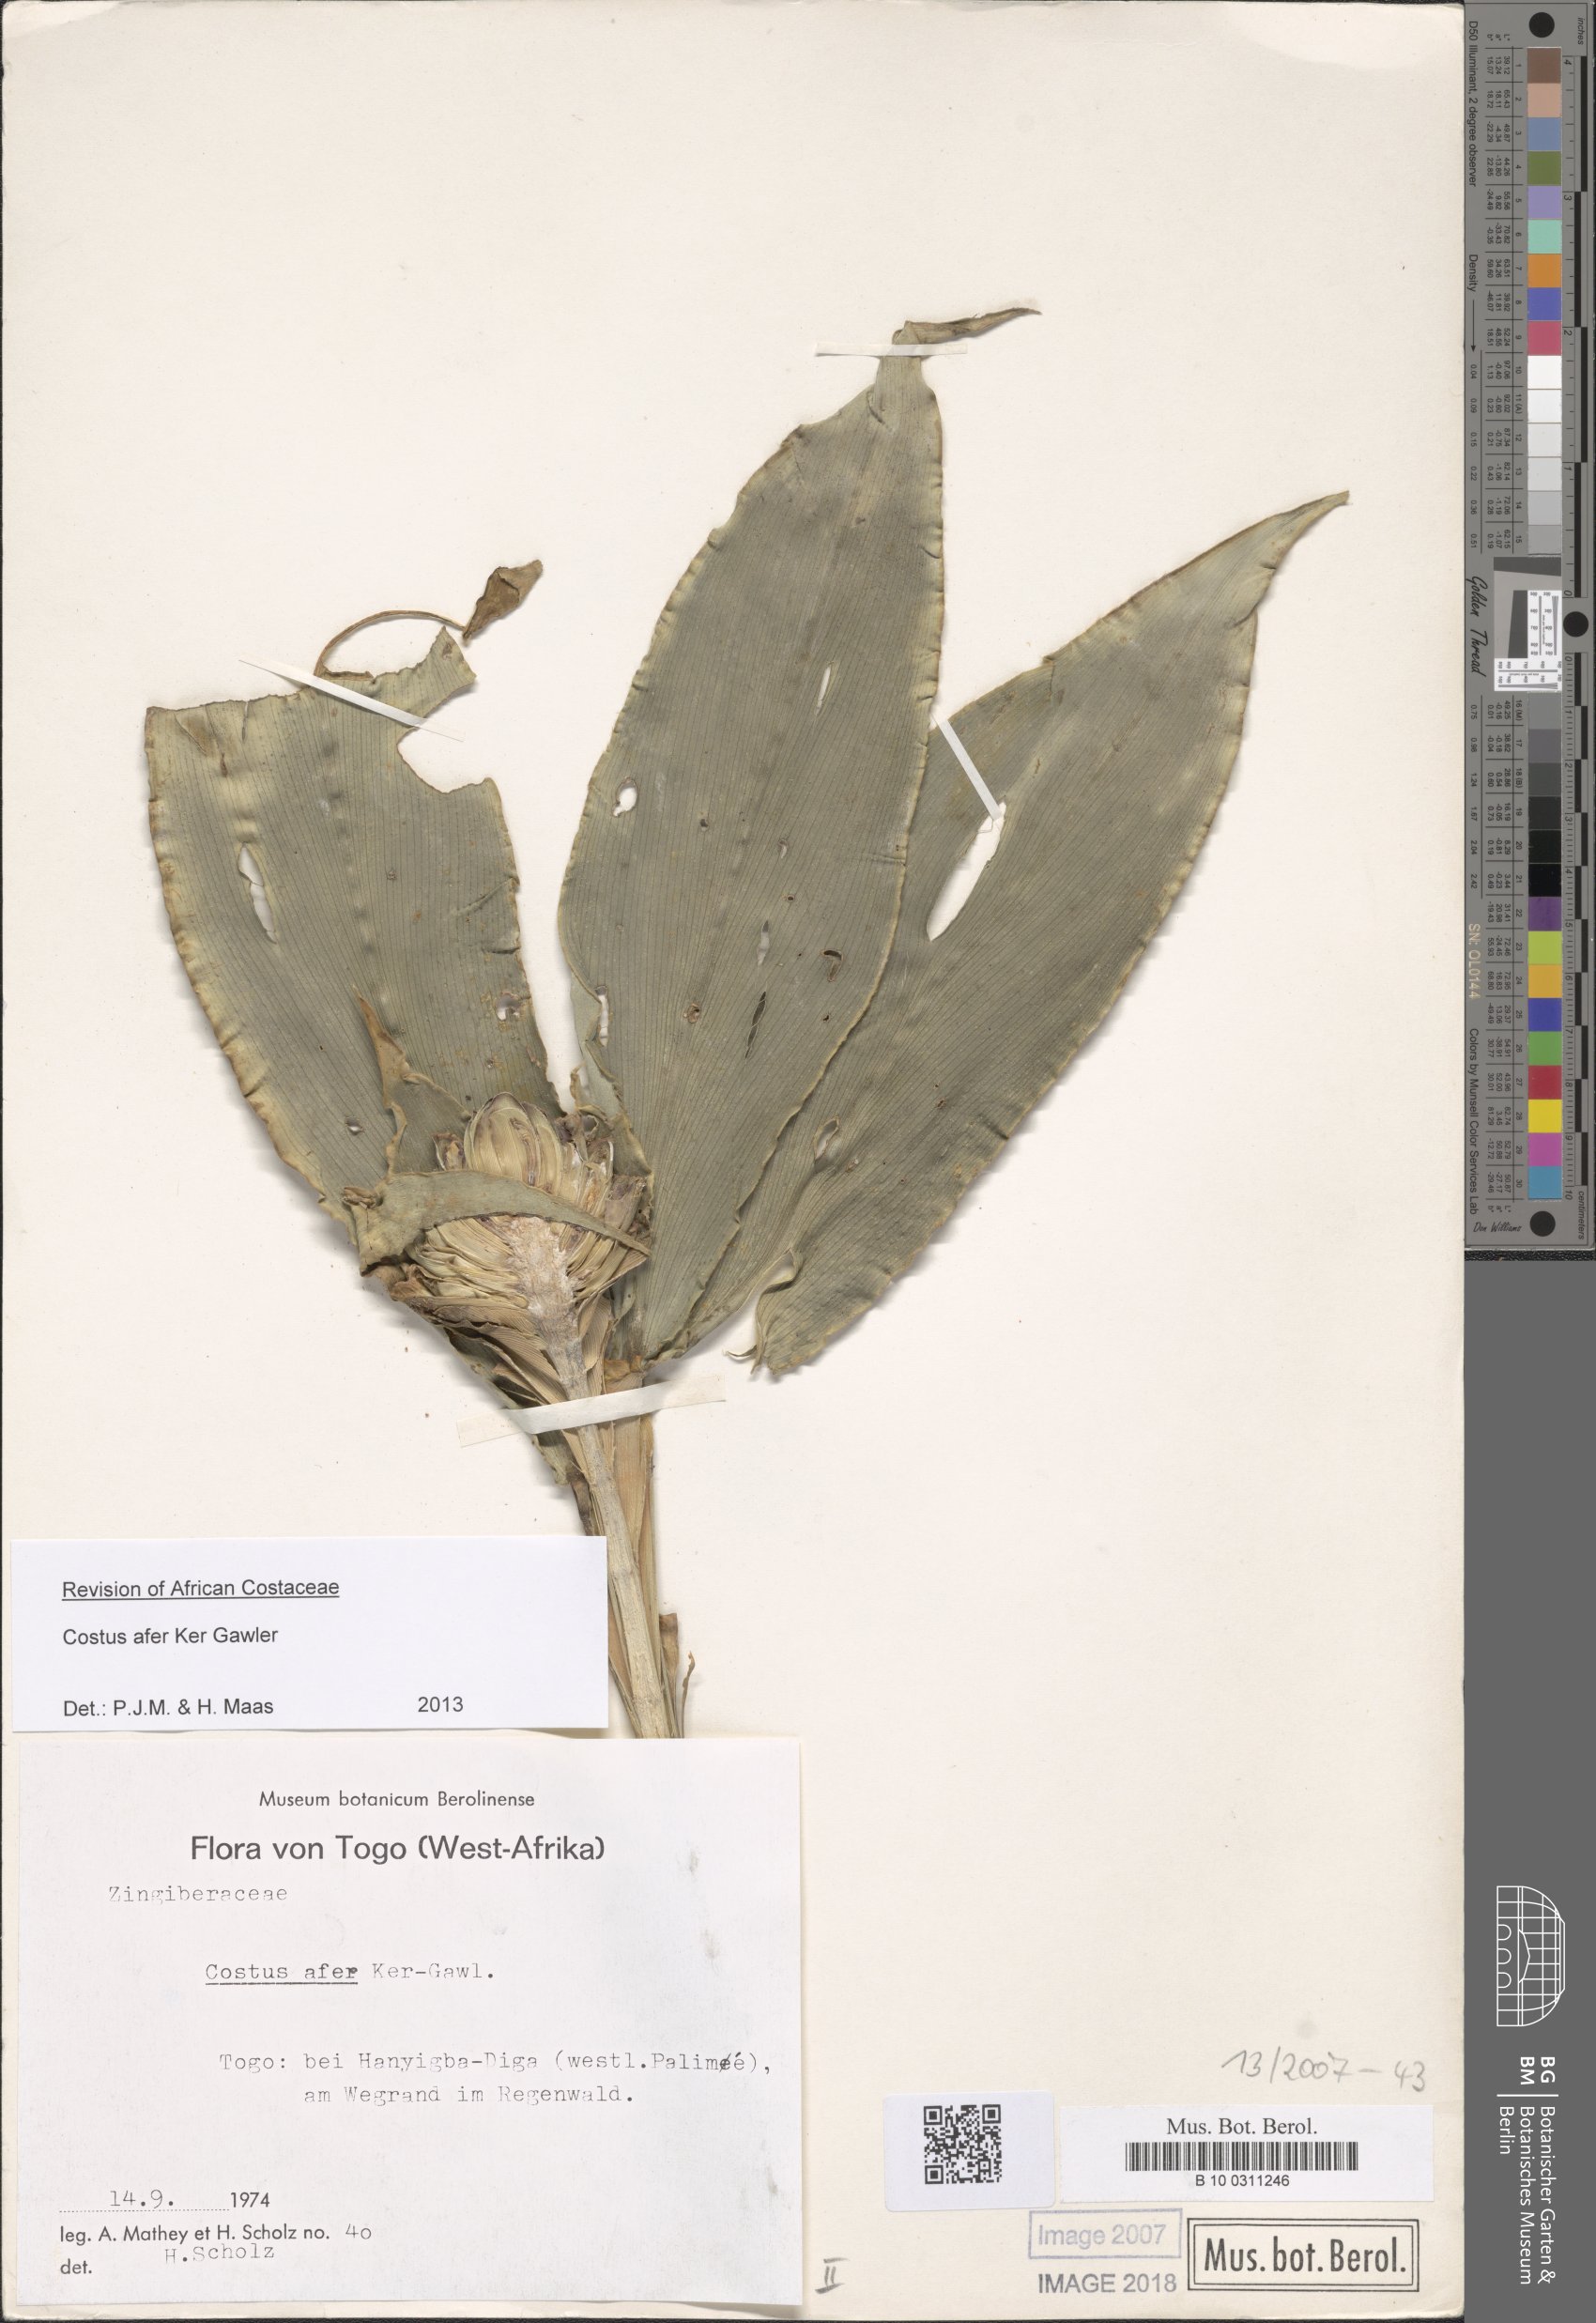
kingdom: Plantae
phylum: Tracheophyta
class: Liliopsida
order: Zingiberales
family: Costaceae
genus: Costus
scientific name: Costus afer
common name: Spiral-ginger
